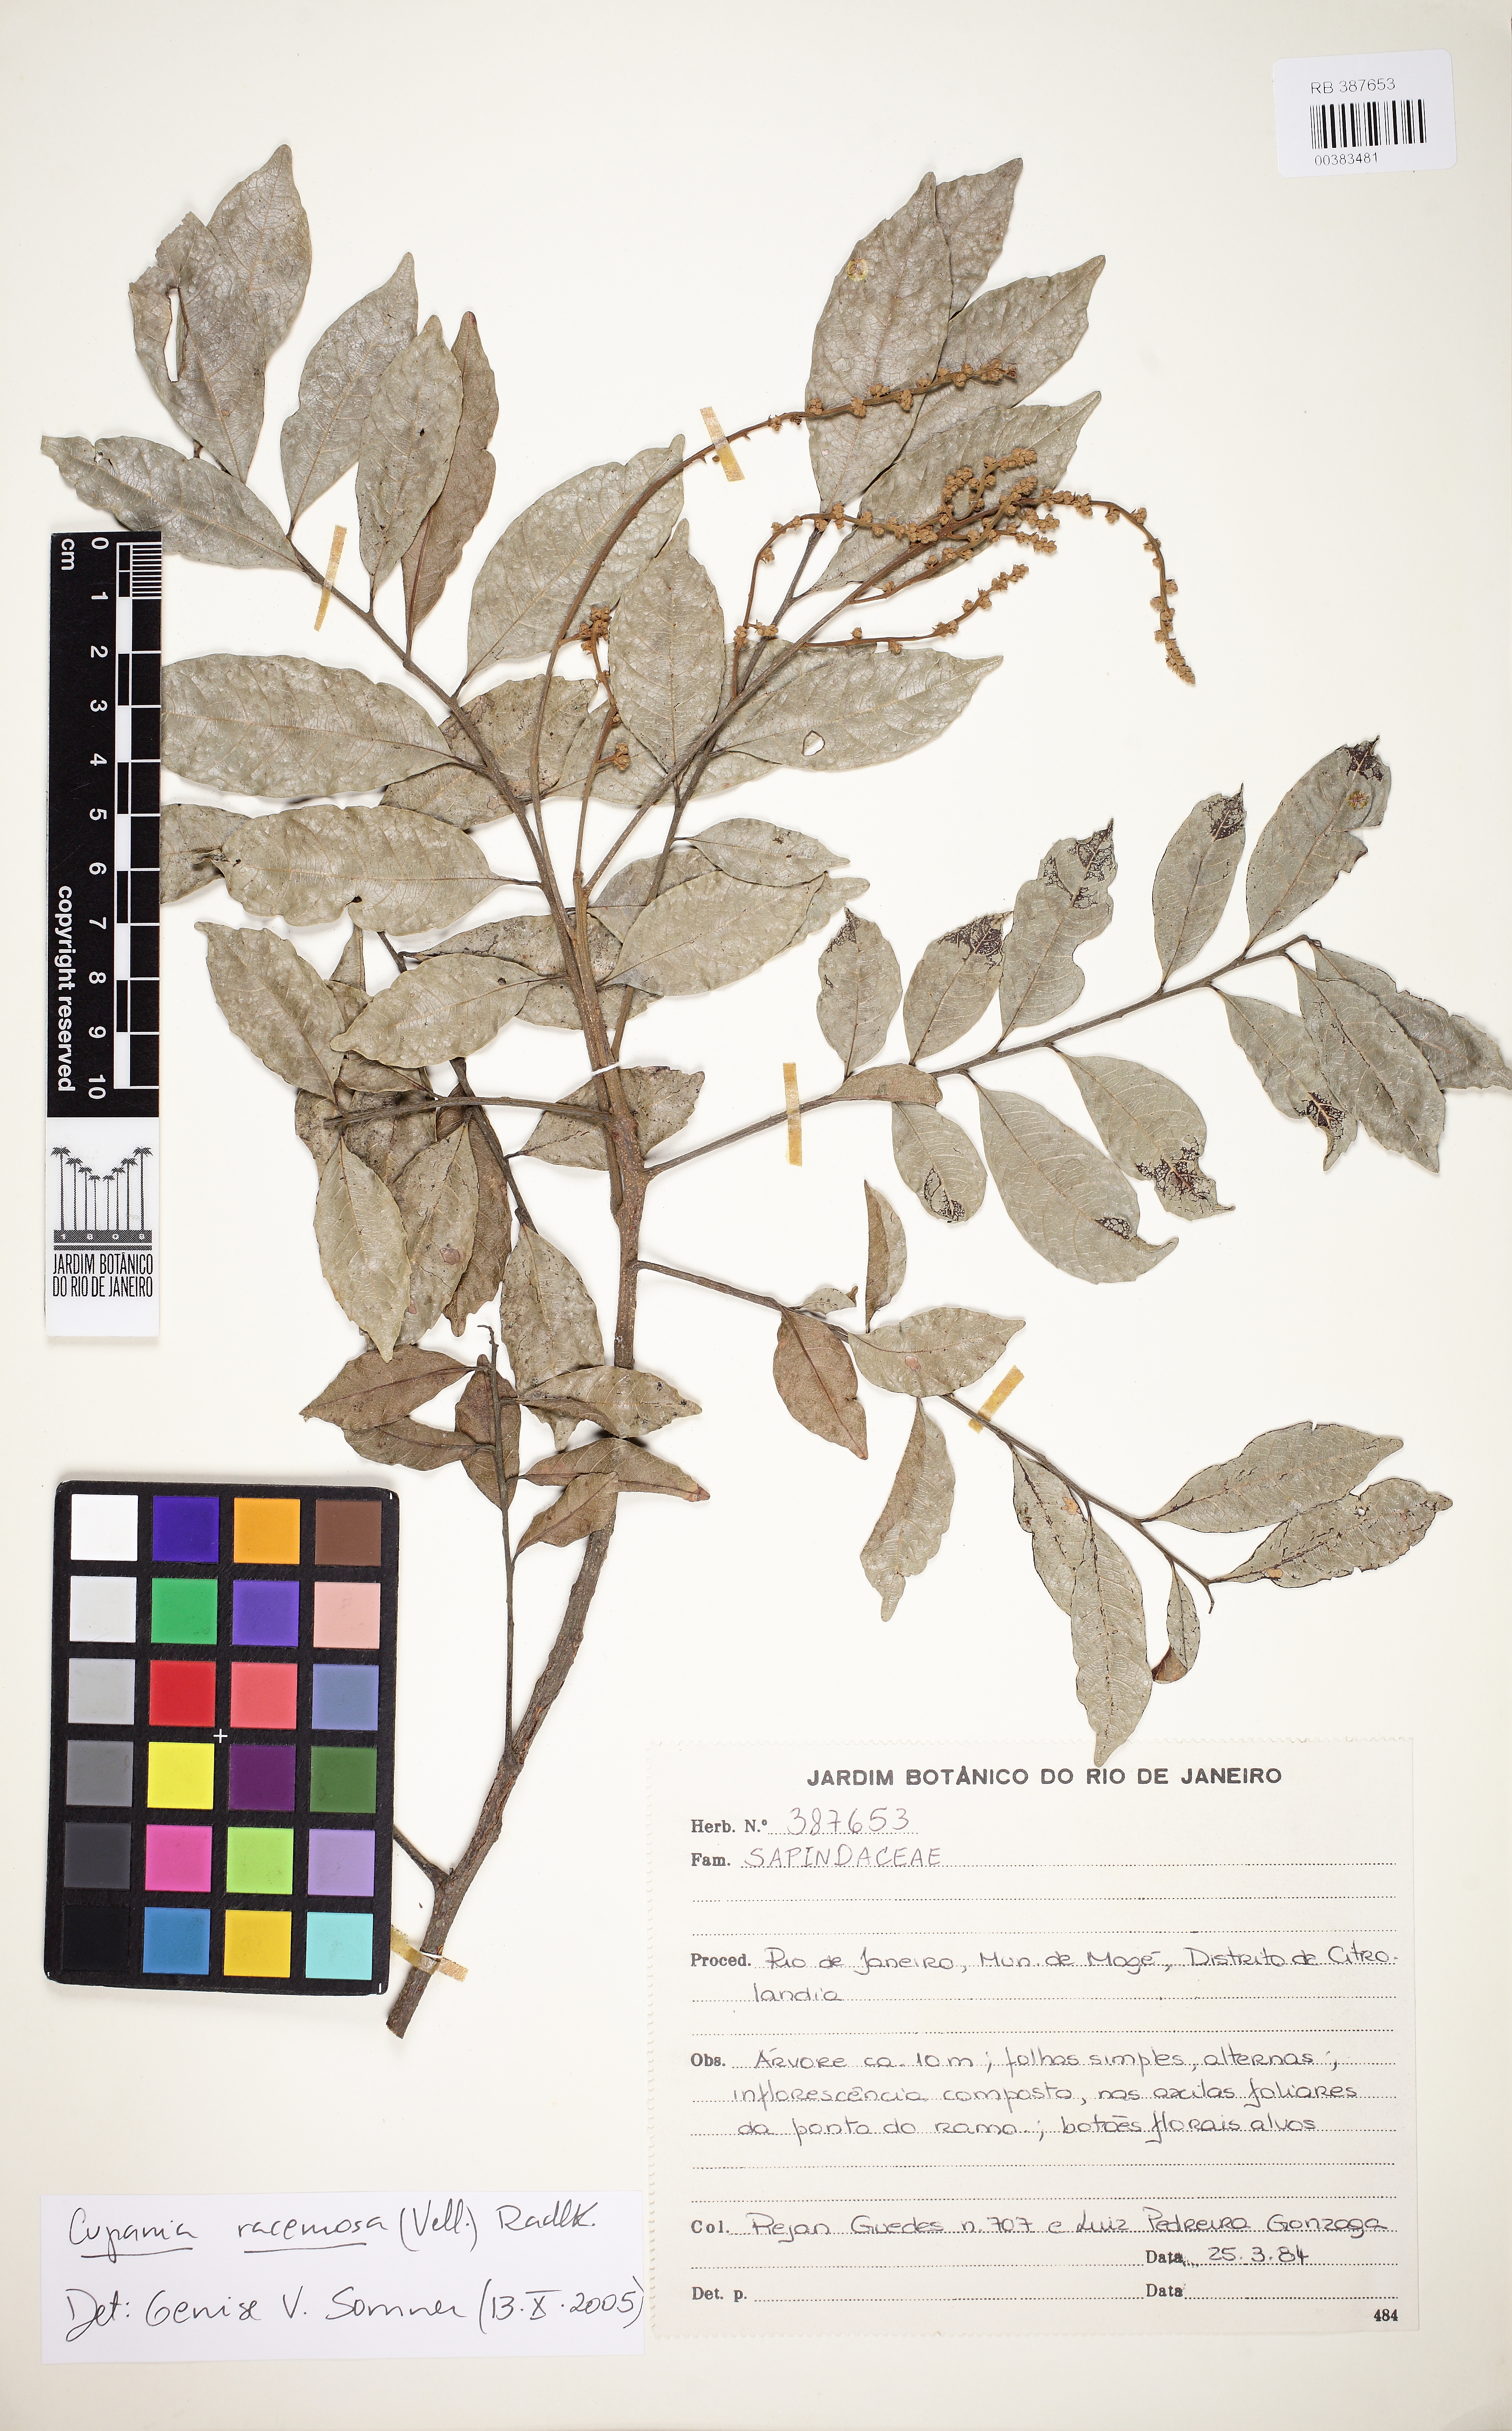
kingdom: Plantae
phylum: Tracheophyta
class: Magnoliopsida
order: Sapindales
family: Sapindaceae
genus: Cupania
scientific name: Cupania racemosa
